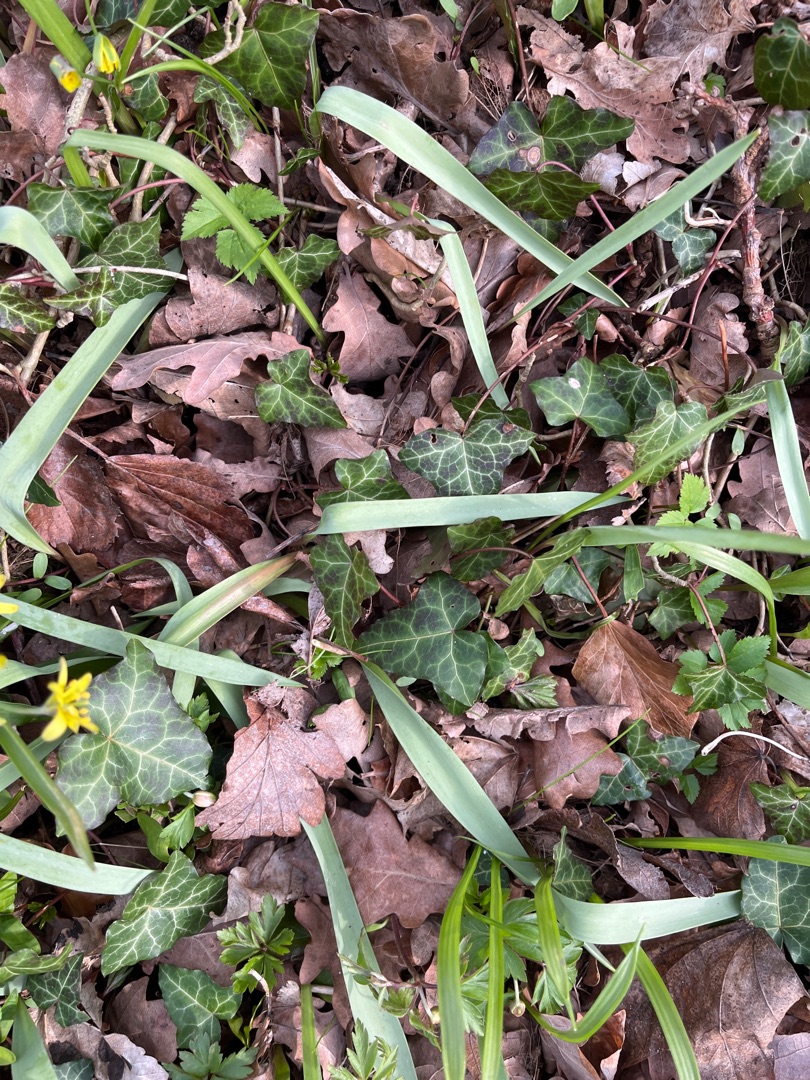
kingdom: Plantae
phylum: Tracheophyta
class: Magnoliopsida
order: Apiales
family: Araliaceae
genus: Hedera
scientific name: Hedera helix
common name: Vedbend
